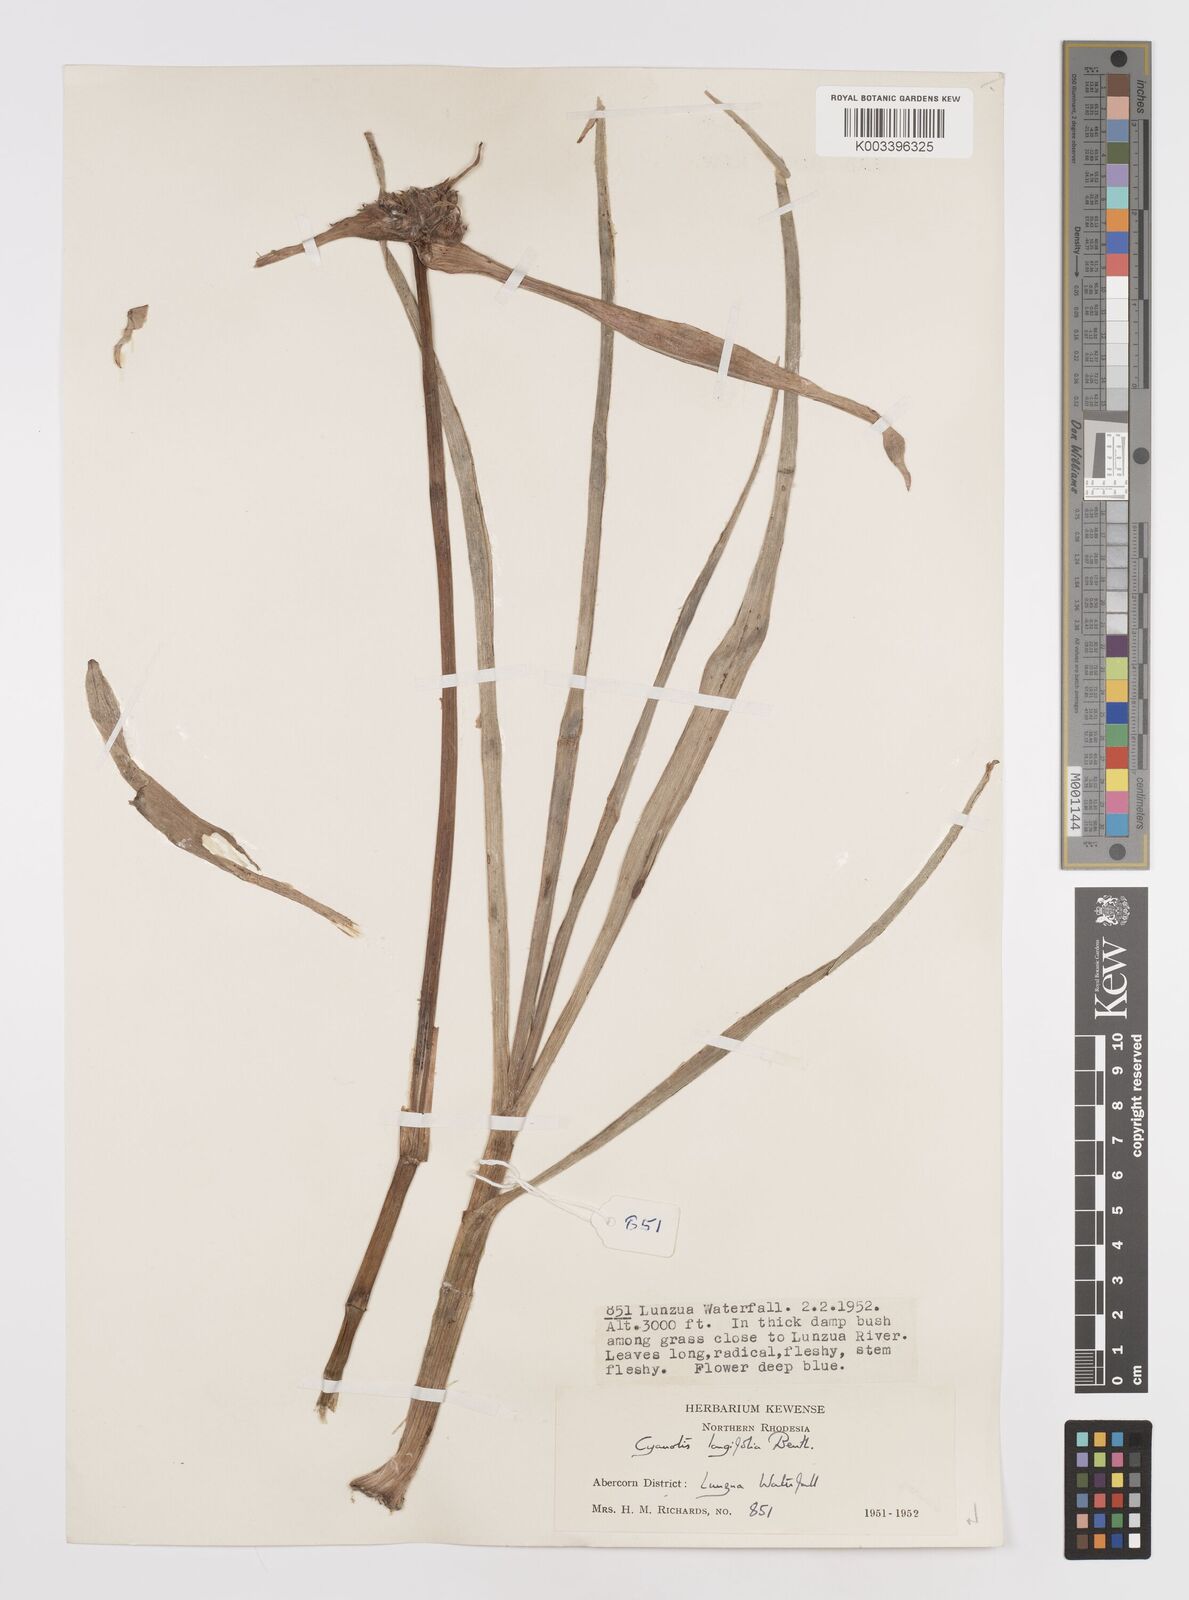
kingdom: Plantae
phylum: Tracheophyta
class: Liliopsida
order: Commelinales
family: Commelinaceae
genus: Cyanotis
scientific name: Cyanotis longifolia
